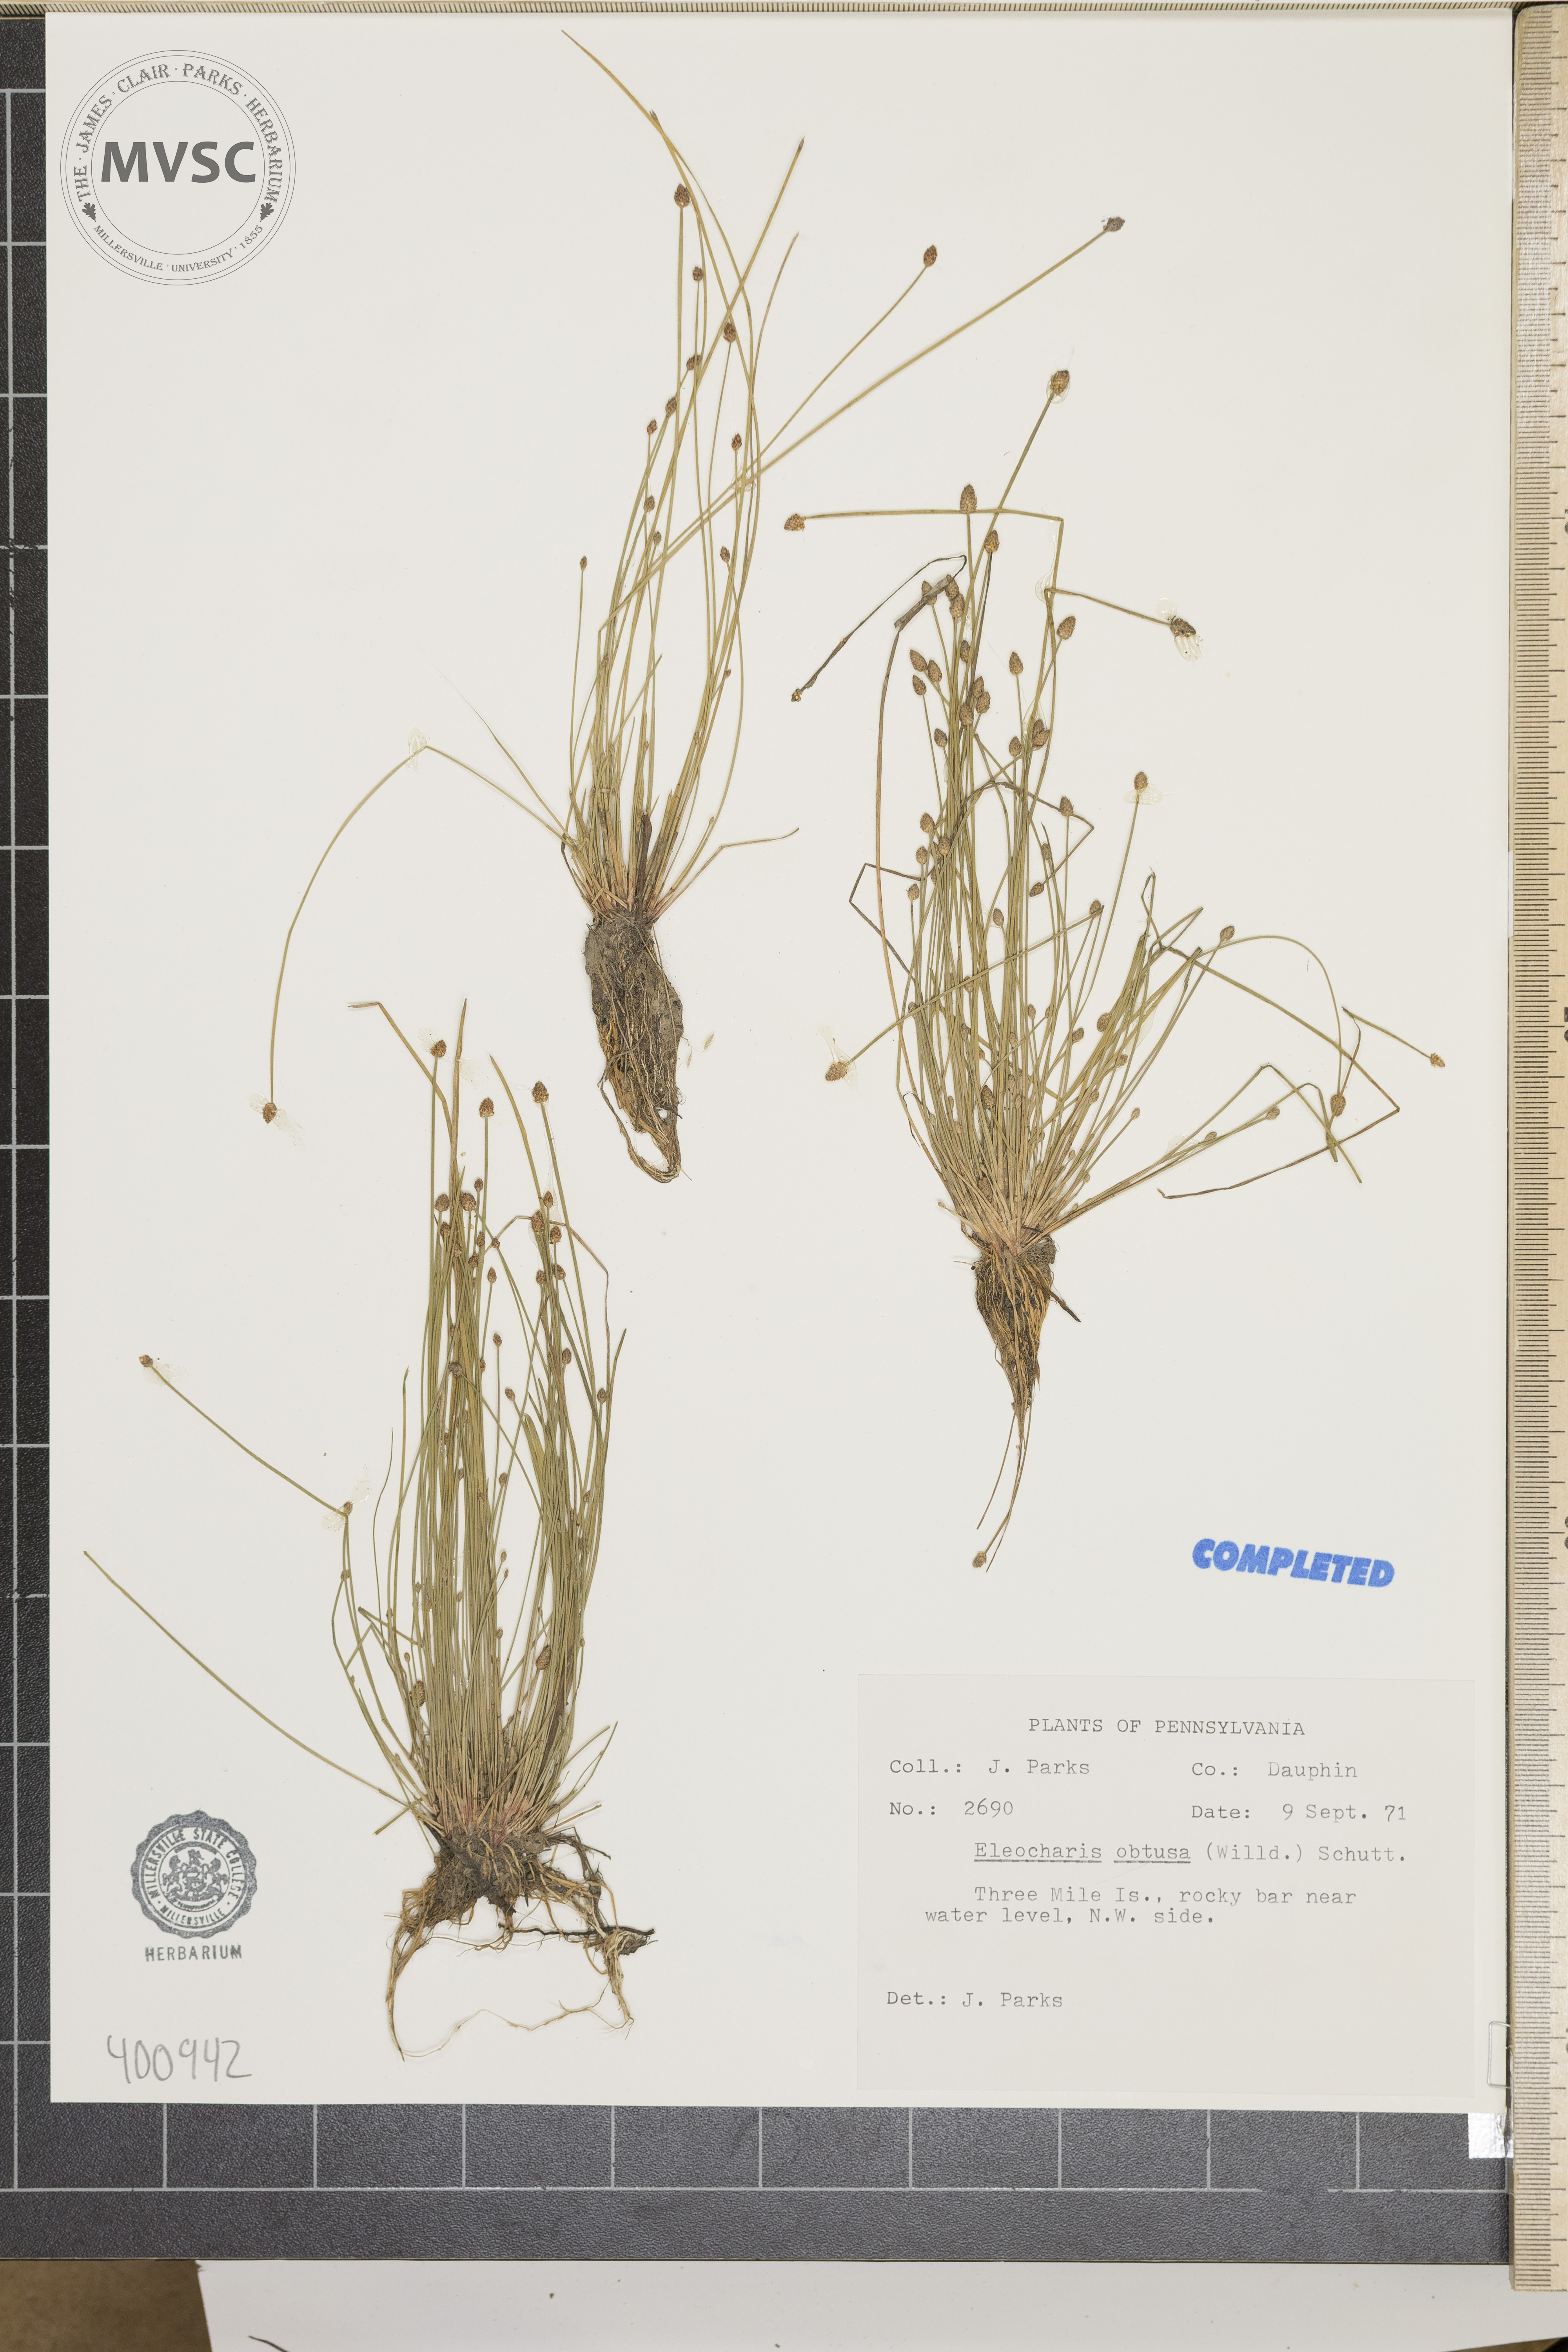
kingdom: Plantae
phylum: Tracheophyta
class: Liliopsida
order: Poales
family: Cyperaceae
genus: Eleocharis
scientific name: Eleocharis obtusa
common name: Blunt spikerush
